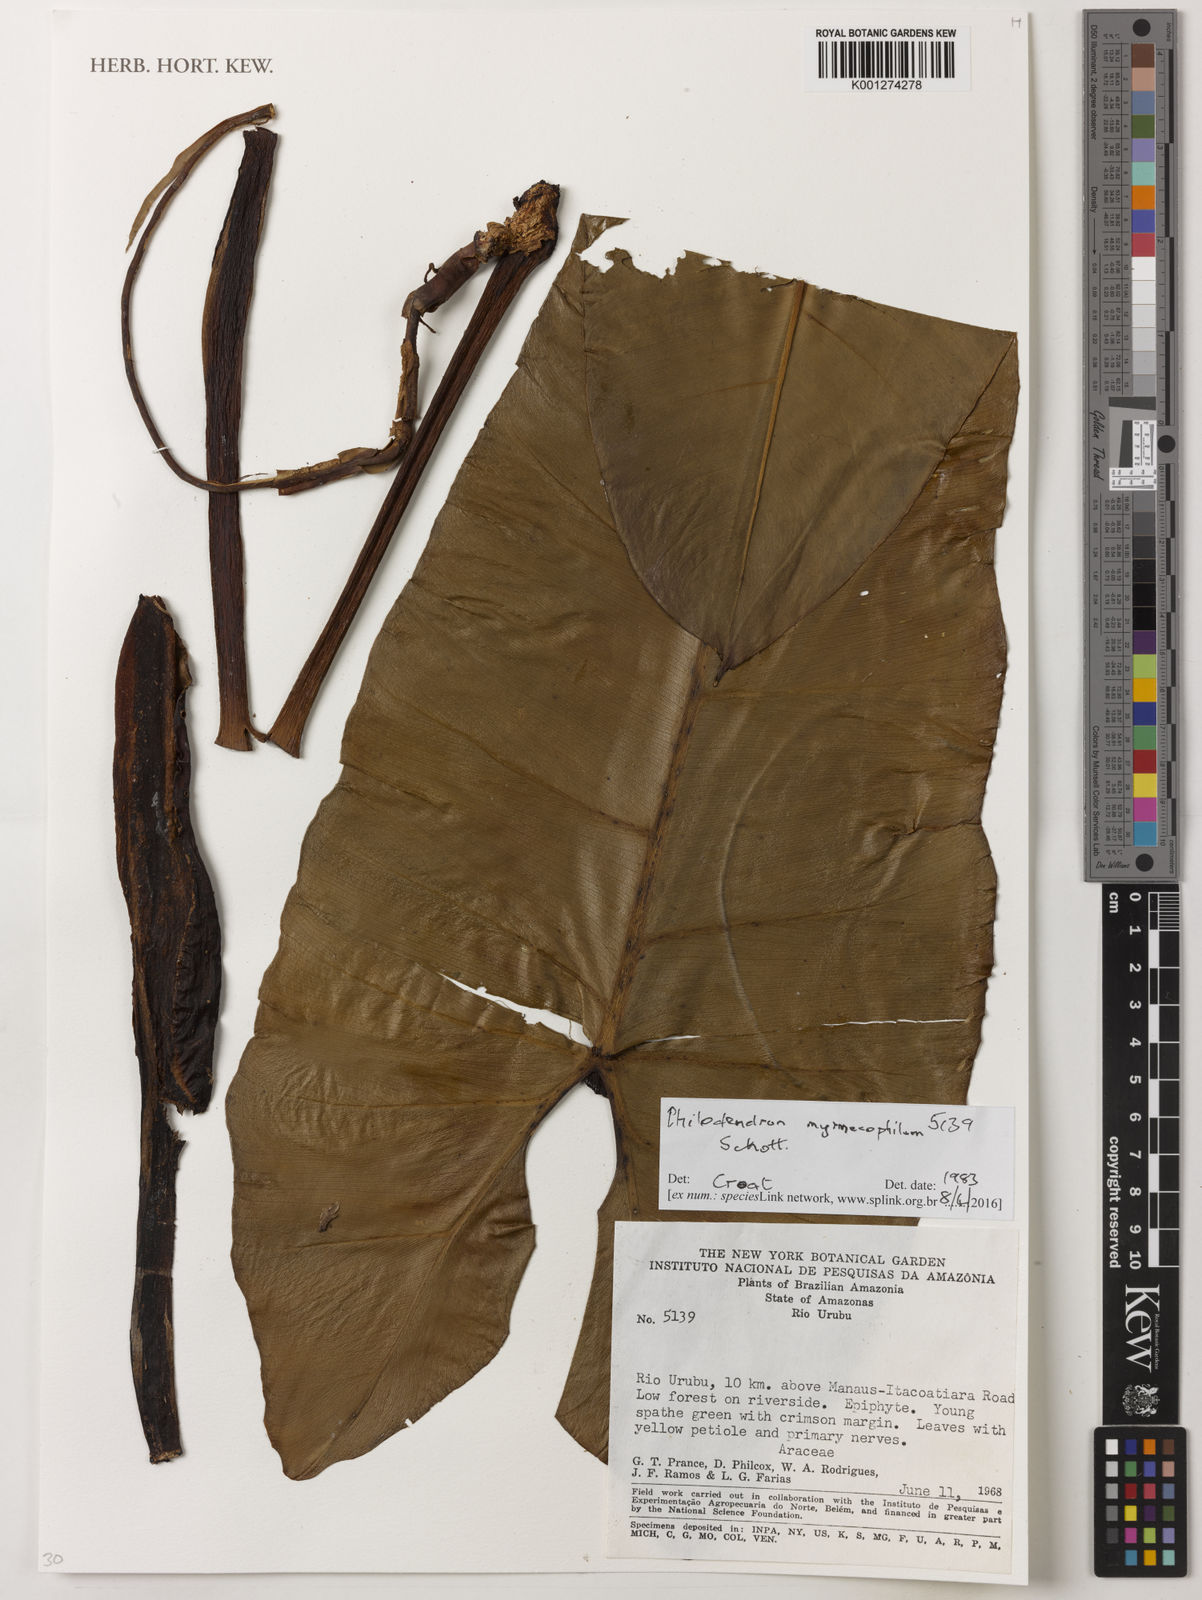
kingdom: Plantae
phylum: Tracheophyta
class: Liliopsida
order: Alismatales
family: Araceae
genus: Philodendron
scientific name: Philodendron myrmecophilum
